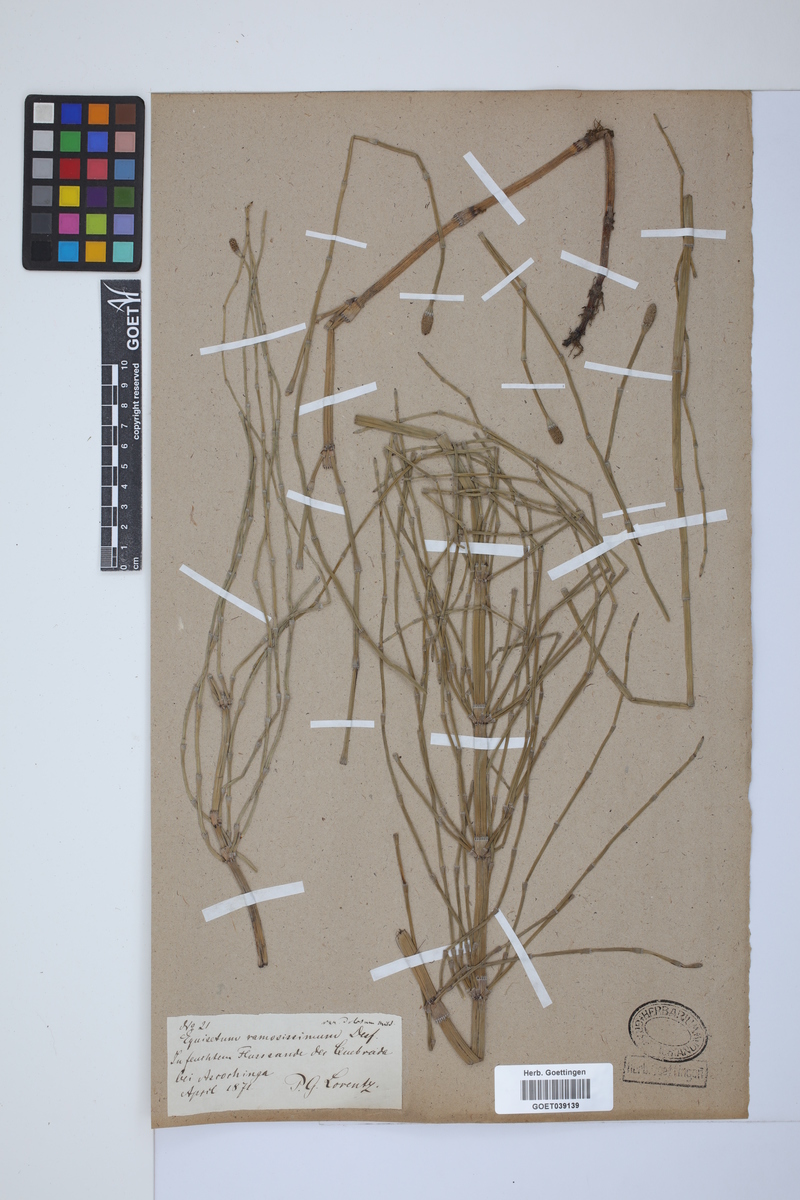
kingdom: Plantae
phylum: Tracheophyta
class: Polypodiopsida
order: Equisetales
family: Equisetaceae
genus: Equisetum
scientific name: Equisetum giganteum
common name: Giant horsetail
